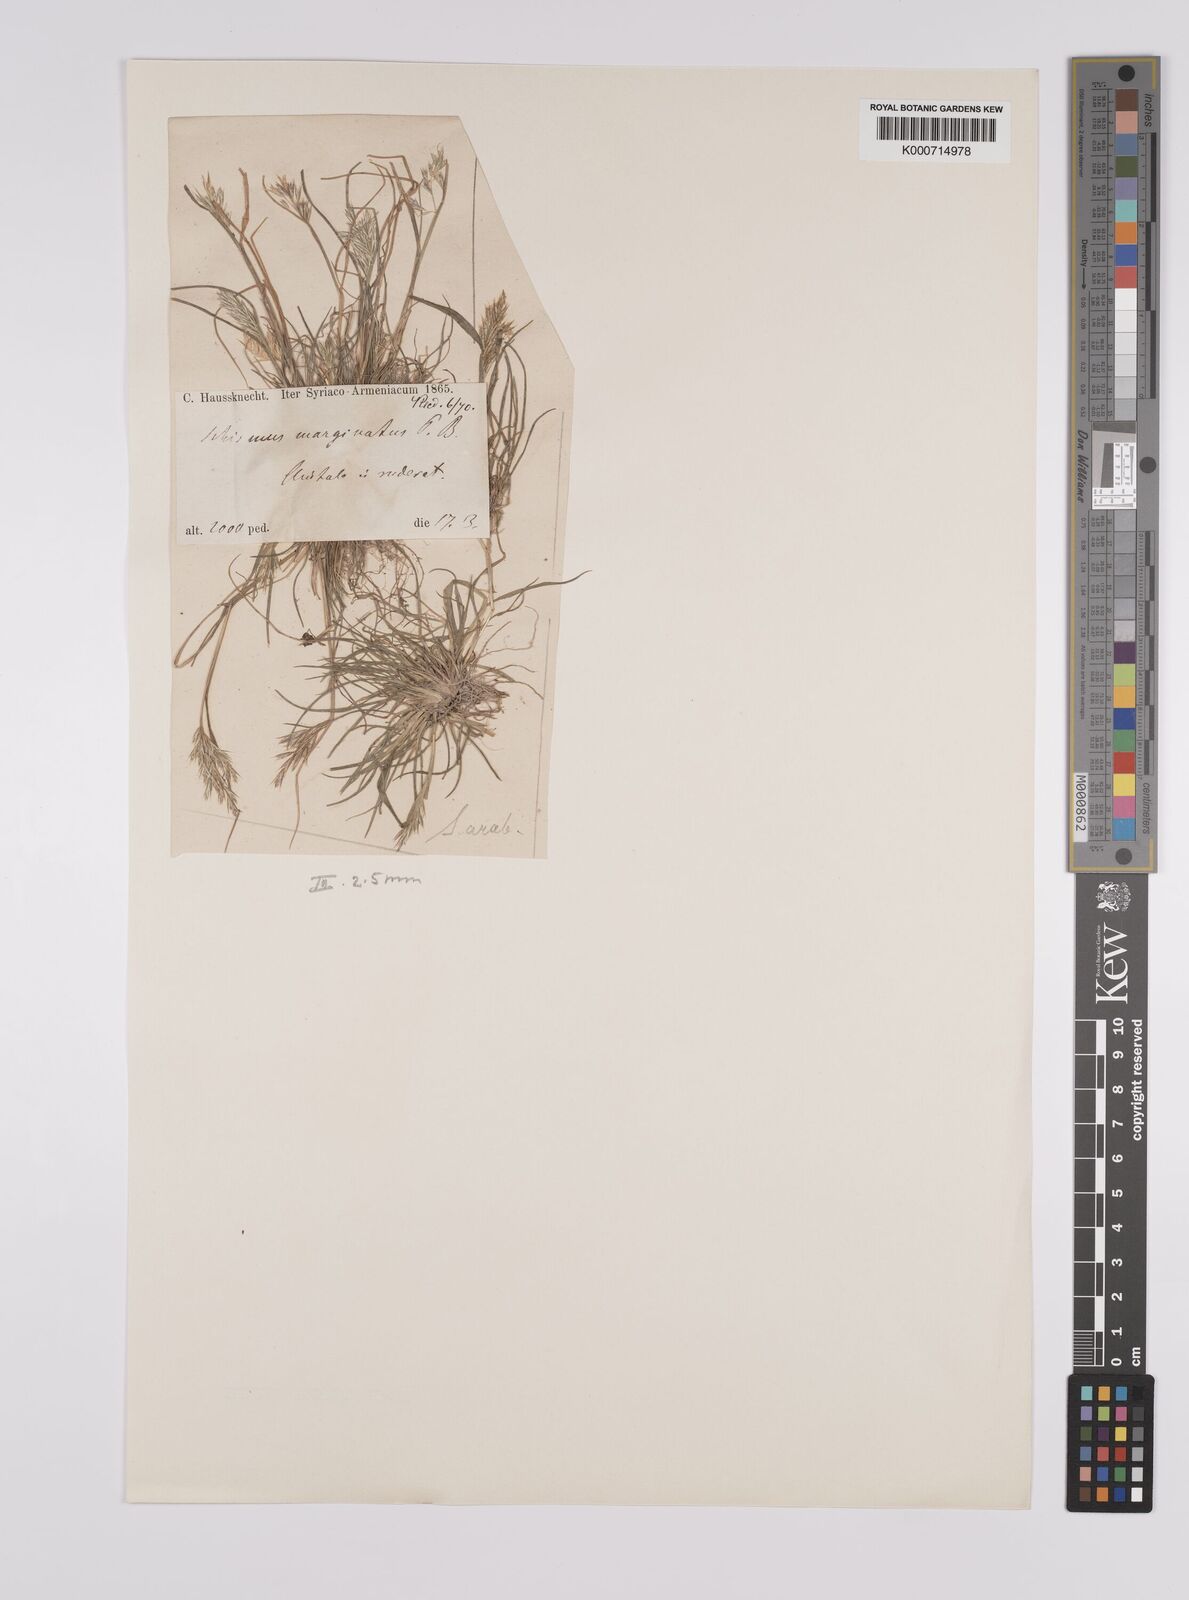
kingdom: Plantae
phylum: Tracheophyta
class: Liliopsida
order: Poales
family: Poaceae
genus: Schismus
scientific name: Schismus arabicus
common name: Arabian schismus
